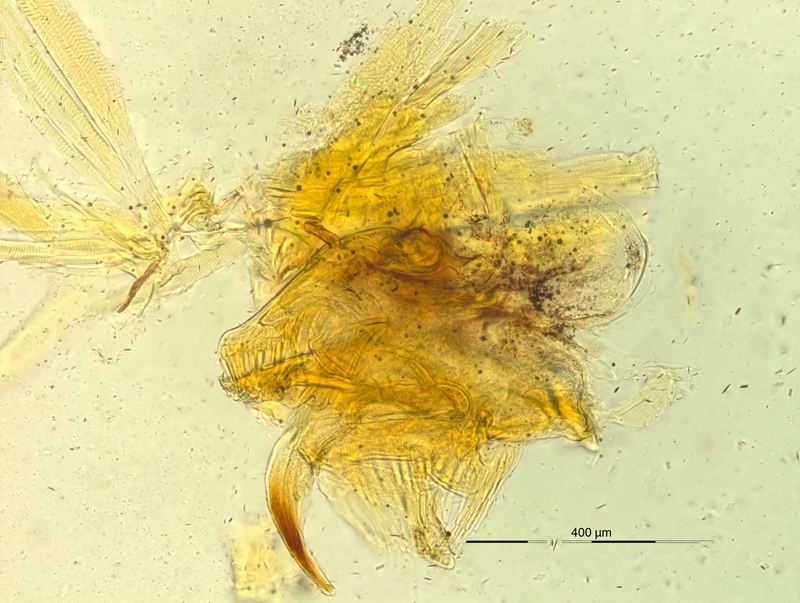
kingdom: Animalia
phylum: Arthropoda
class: Diplopoda
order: Chordeumatida
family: Craspedosomatidae
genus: Pyrgocyphosoma
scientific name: Pyrgocyphosoma serianum
